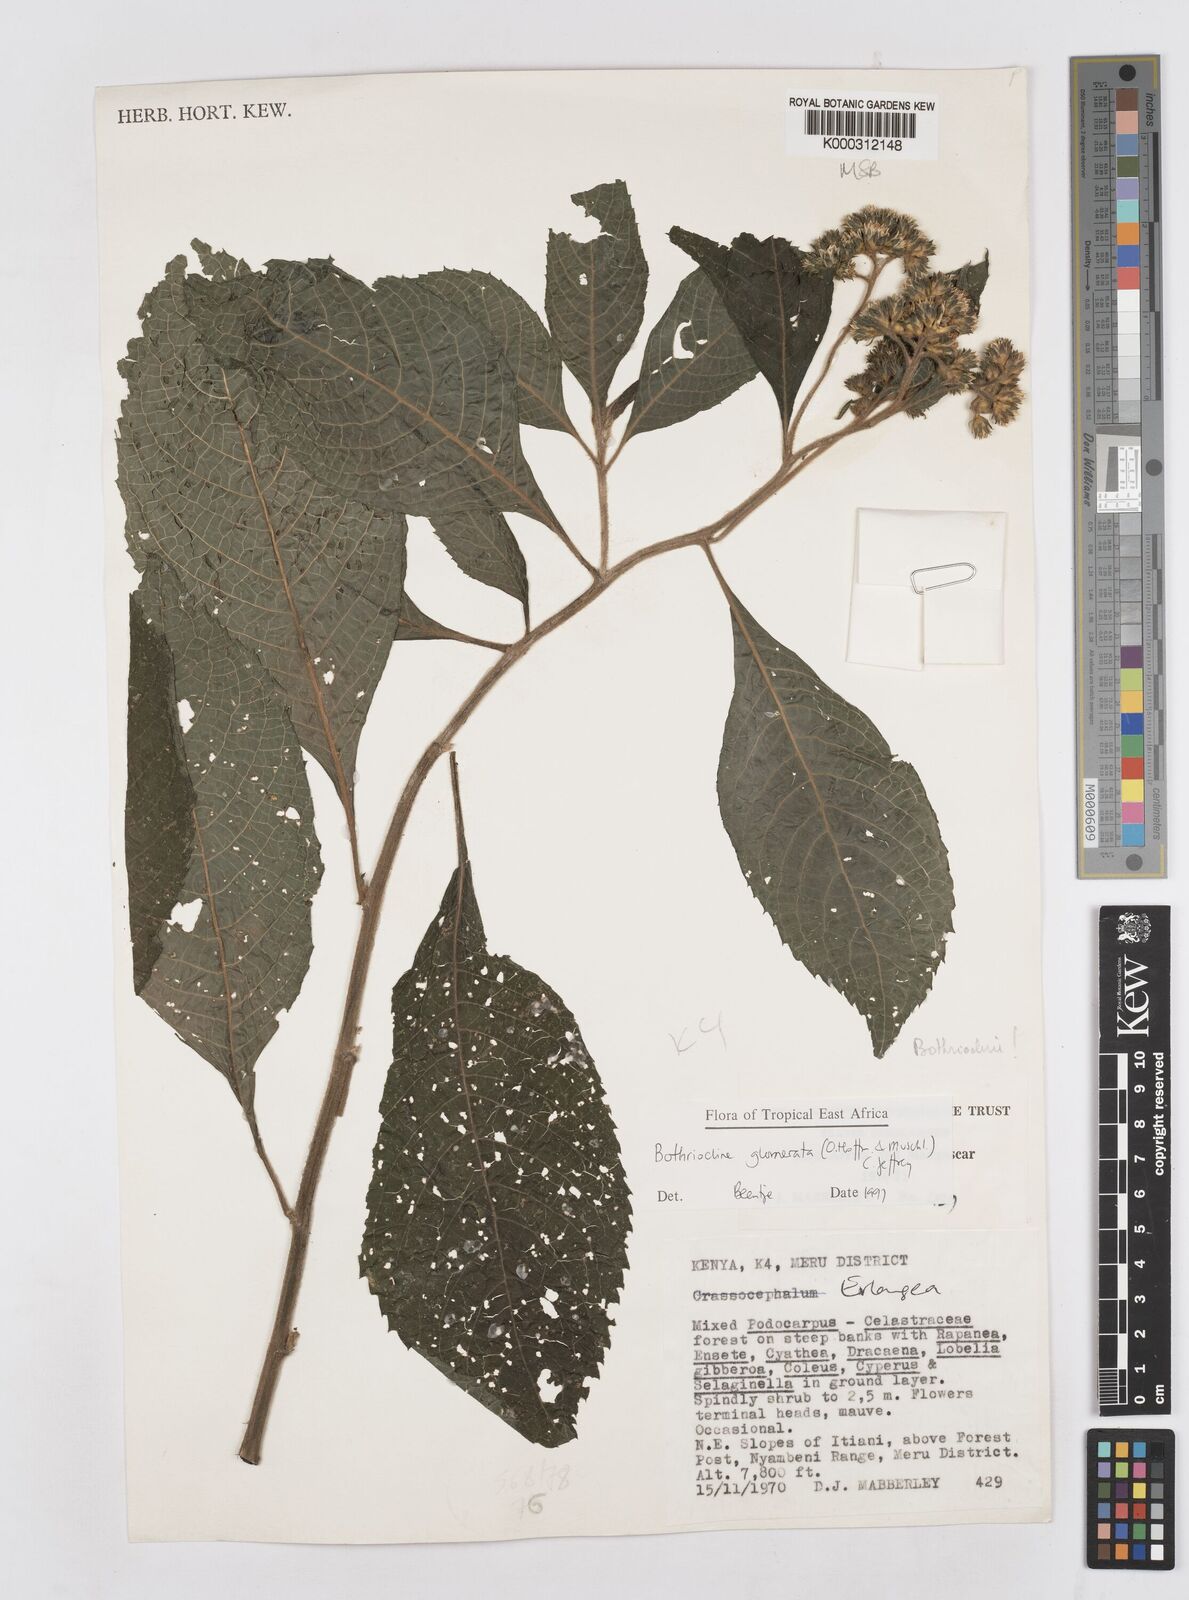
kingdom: Plantae
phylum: Tracheophyta
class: Magnoliopsida
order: Asterales
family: Asteraceae
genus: Bothriocline
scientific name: Bothriocline glomerata
